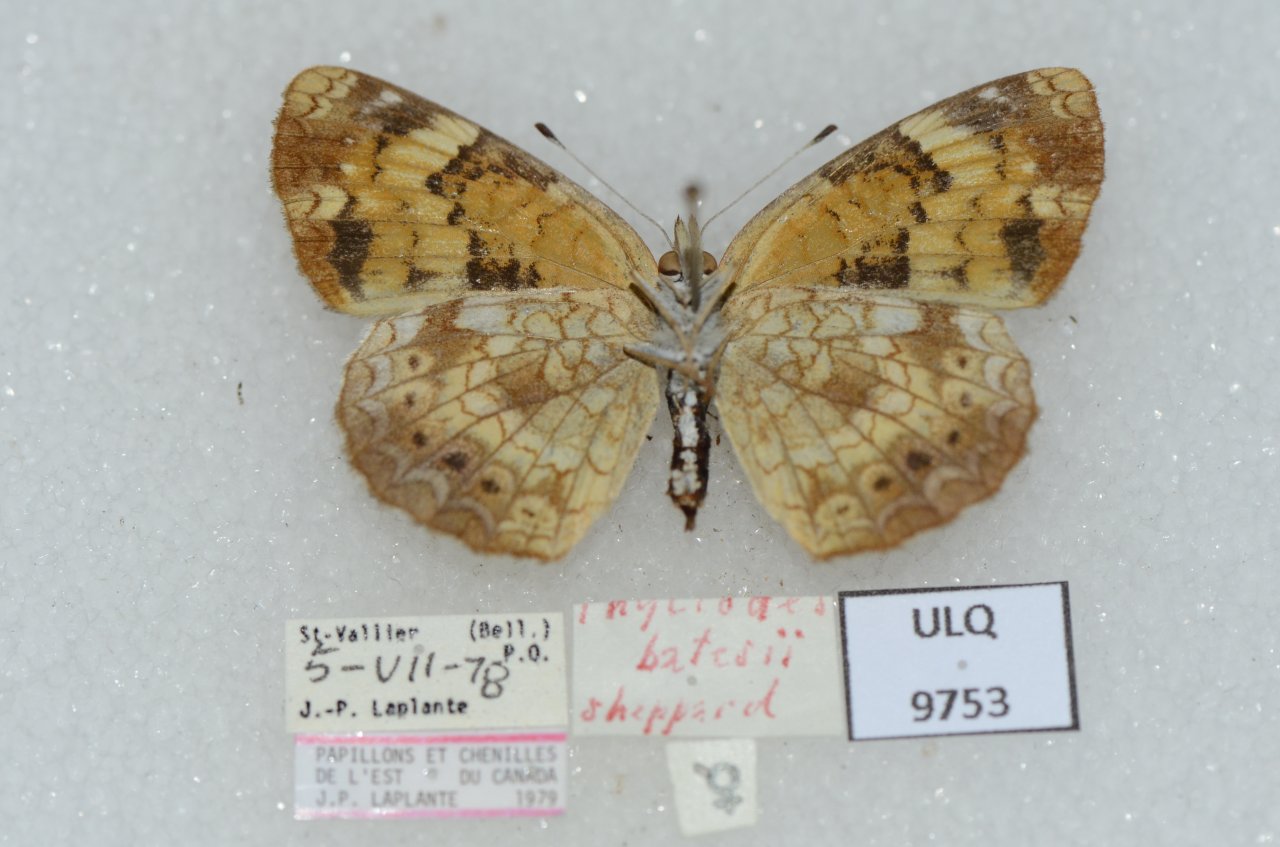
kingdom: Animalia
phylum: Arthropoda
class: Insecta
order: Lepidoptera
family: Nymphalidae
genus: Phyciodes
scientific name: Phyciodes tharos
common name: Northern Crescent
